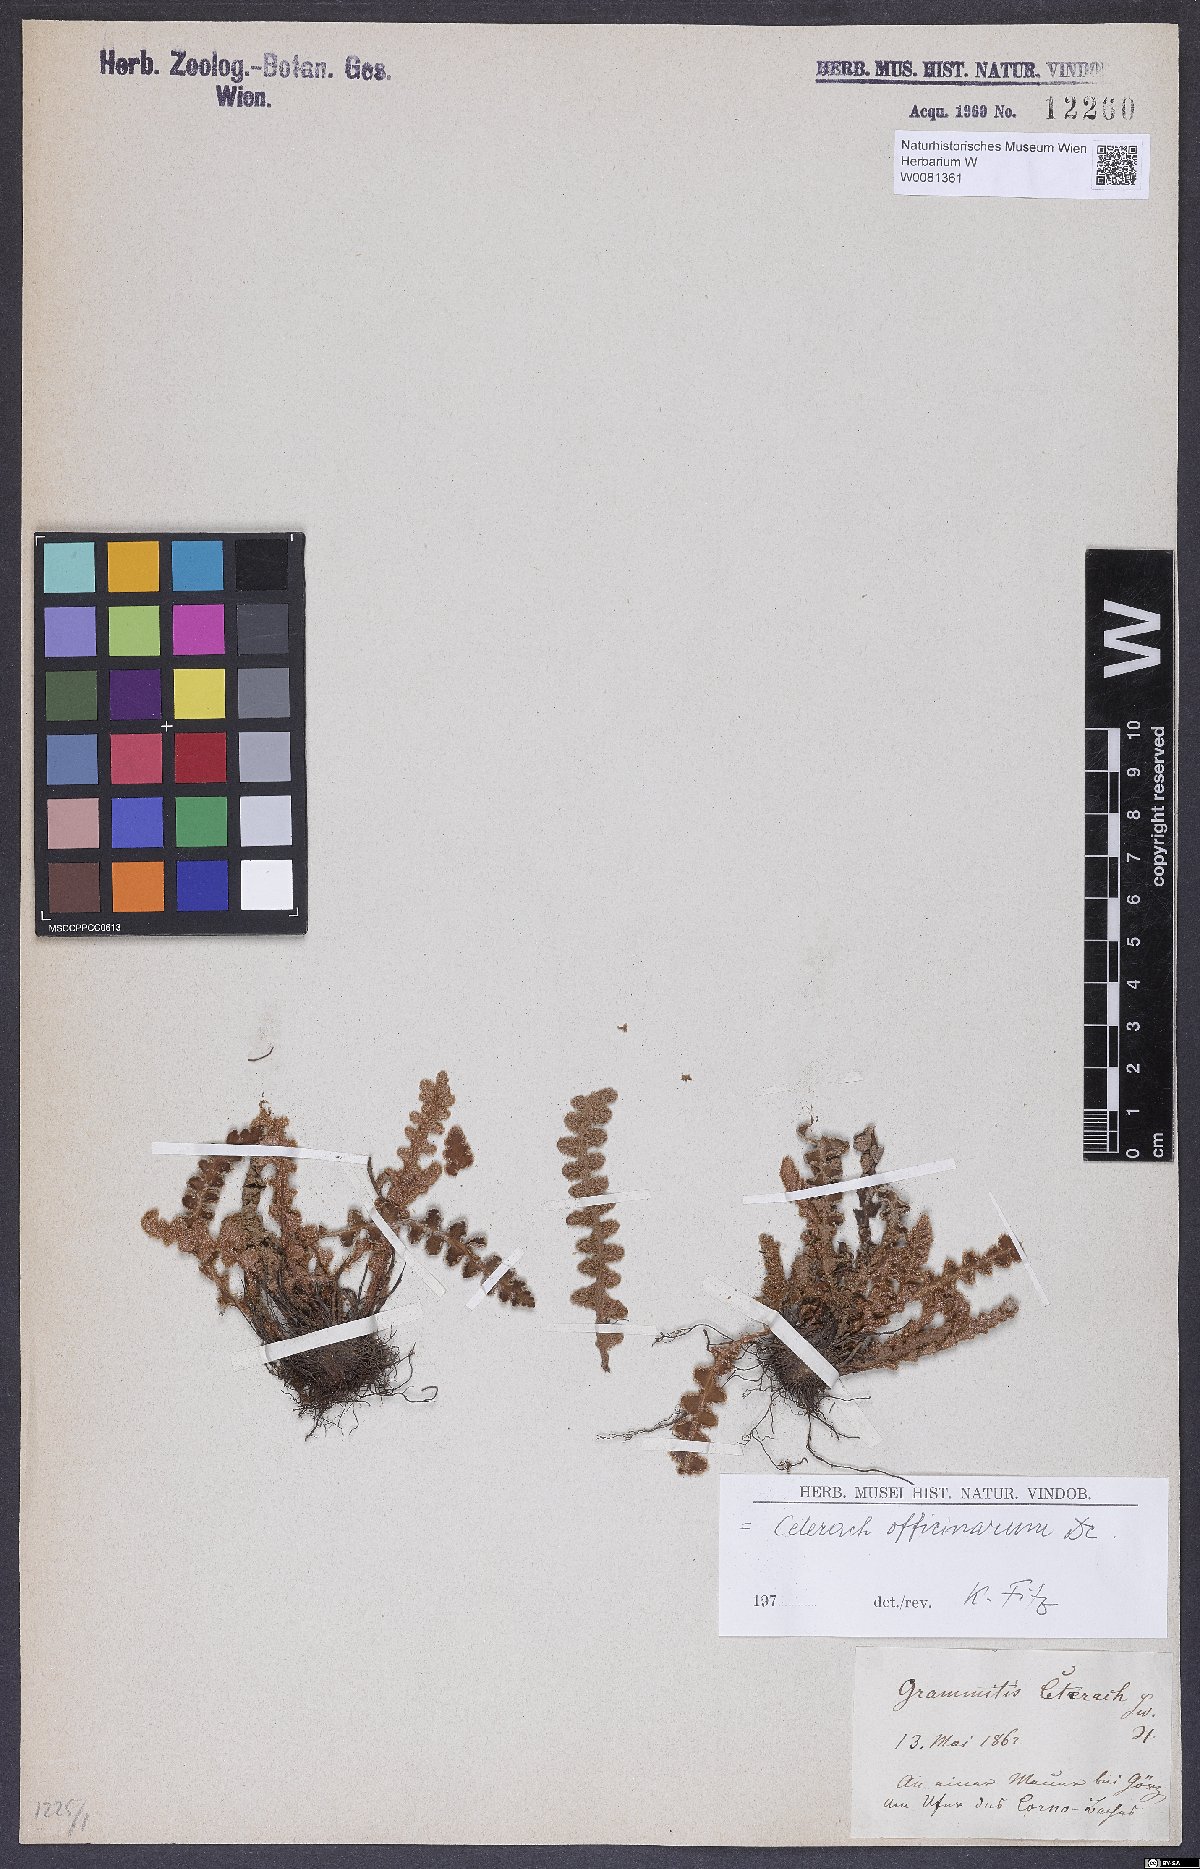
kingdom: Plantae
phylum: Tracheophyta
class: Polypodiopsida
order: Polypodiales
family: Aspleniaceae
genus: Asplenium
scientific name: Asplenium ceterach
